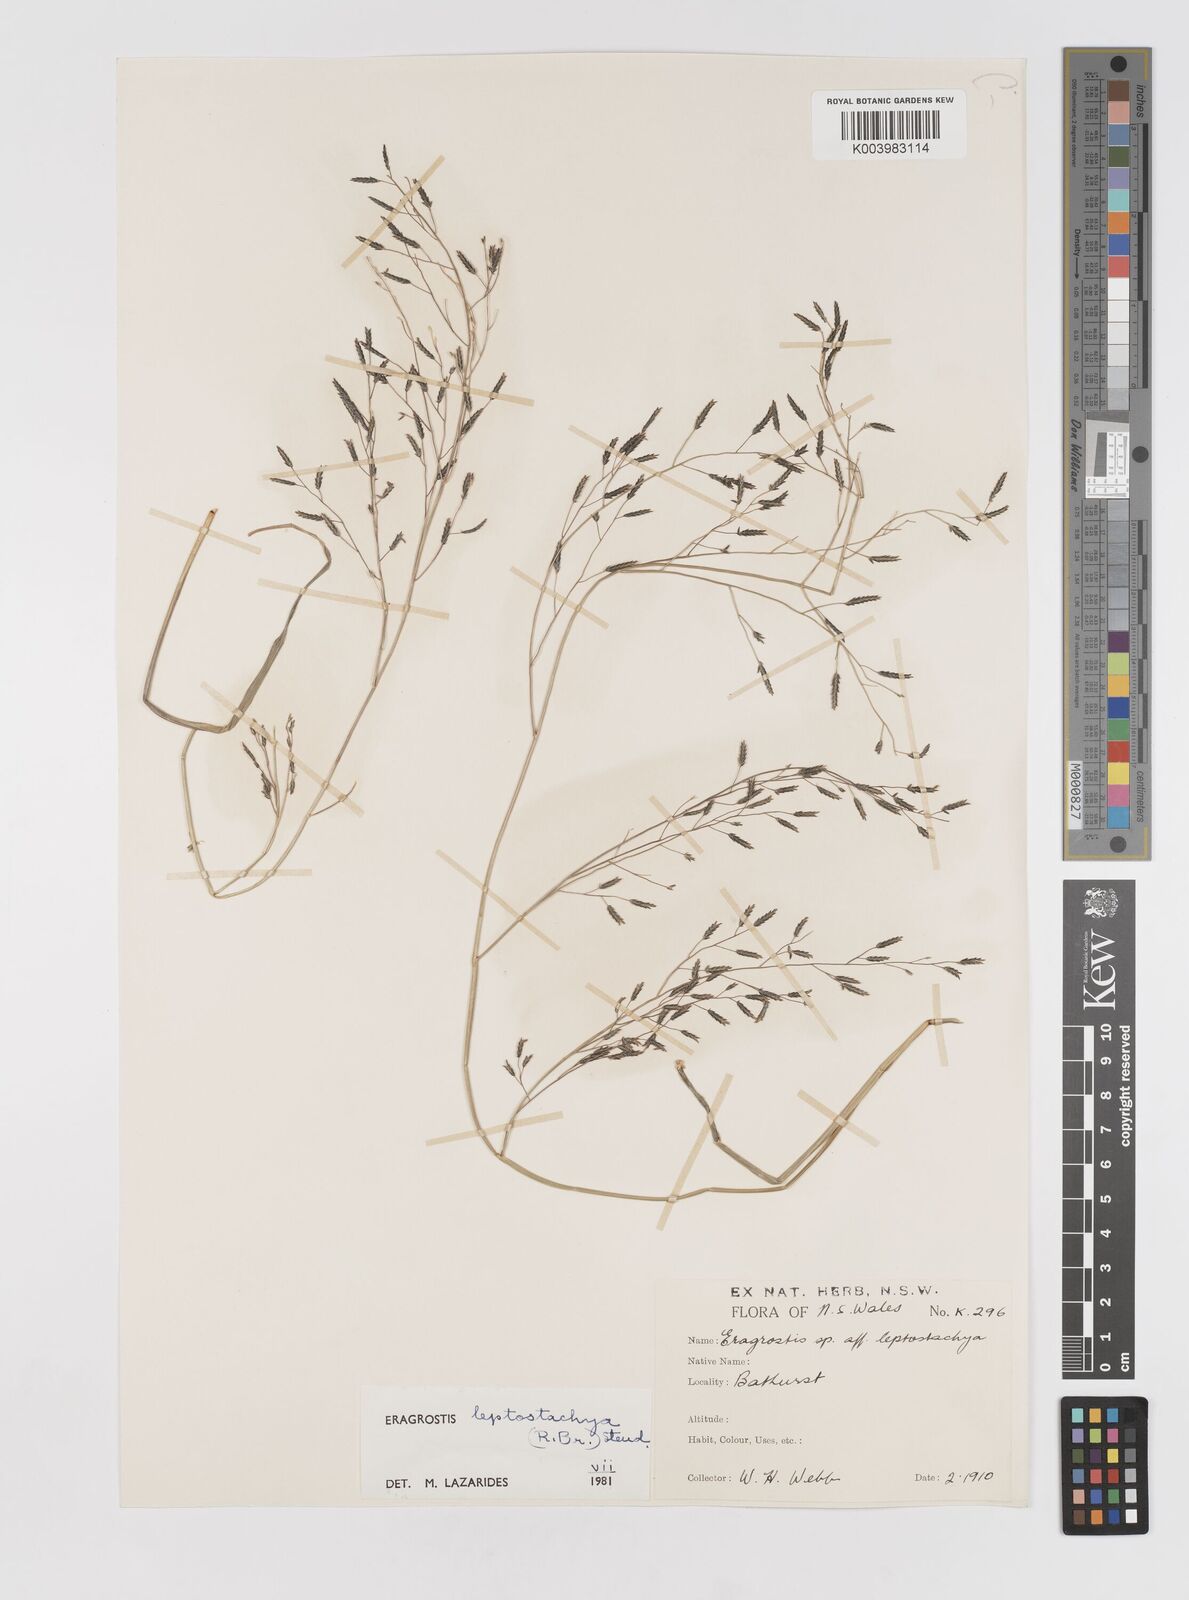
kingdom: Plantae
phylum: Tracheophyta
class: Liliopsida
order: Poales
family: Poaceae
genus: Eragrostis
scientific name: Eragrostis leptostachya
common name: Australian lovegrass
